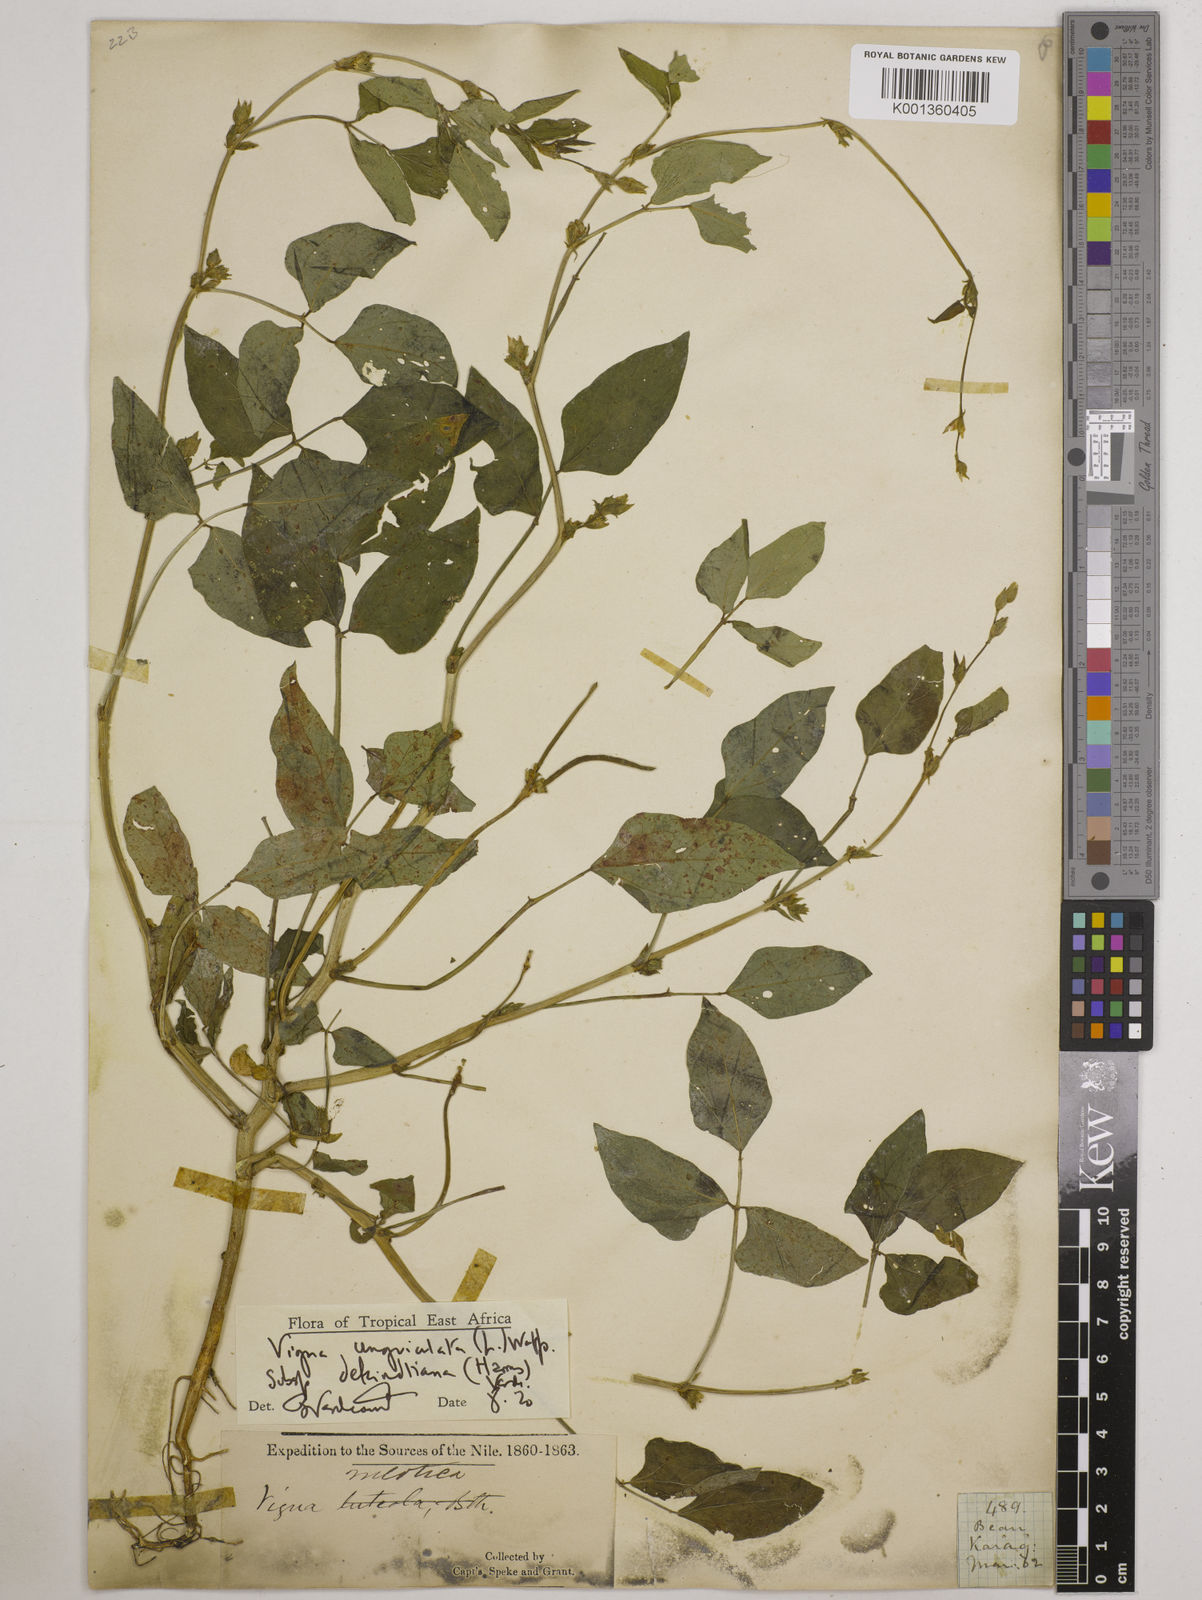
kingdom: Plantae
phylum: Tracheophyta
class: Magnoliopsida
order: Fabales
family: Fabaceae
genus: Vigna
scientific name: Vigna
